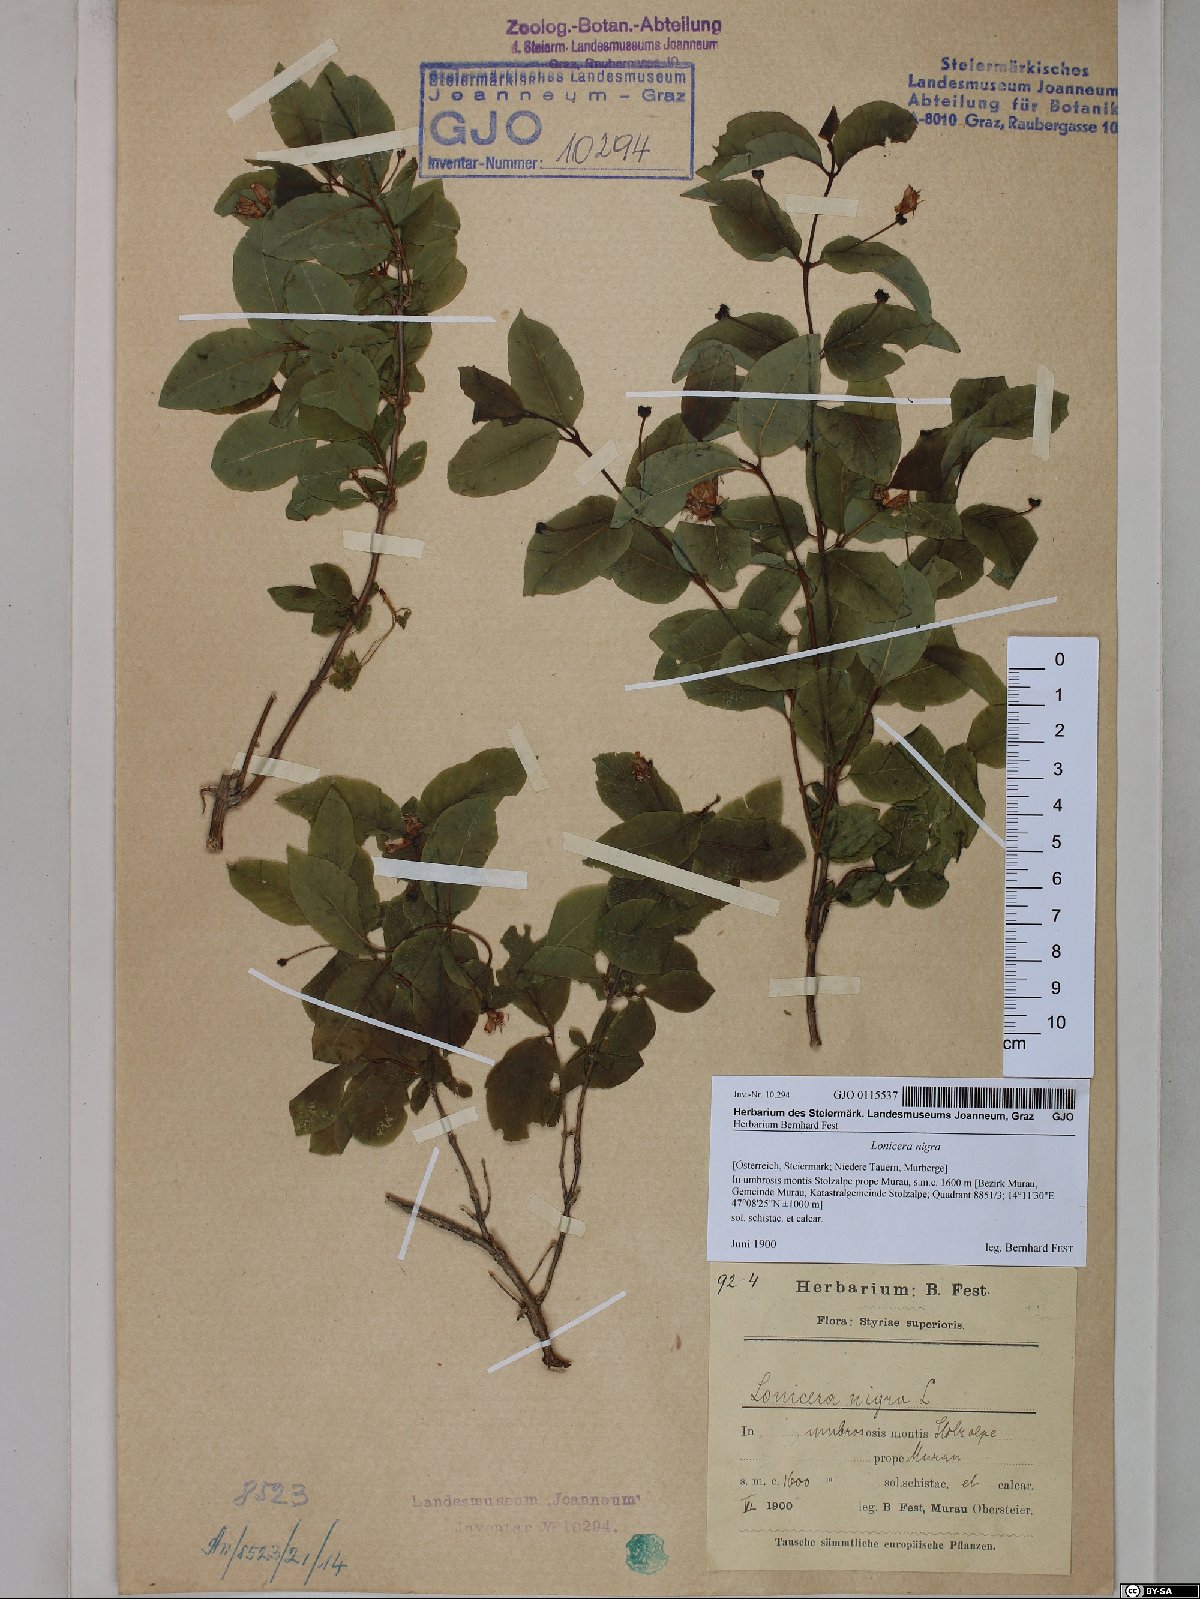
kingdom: Plantae
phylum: Tracheophyta
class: Magnoliopsida
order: Dipsacales
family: Caprifoliaceae
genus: Lonicera
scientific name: Lonicera nigra
